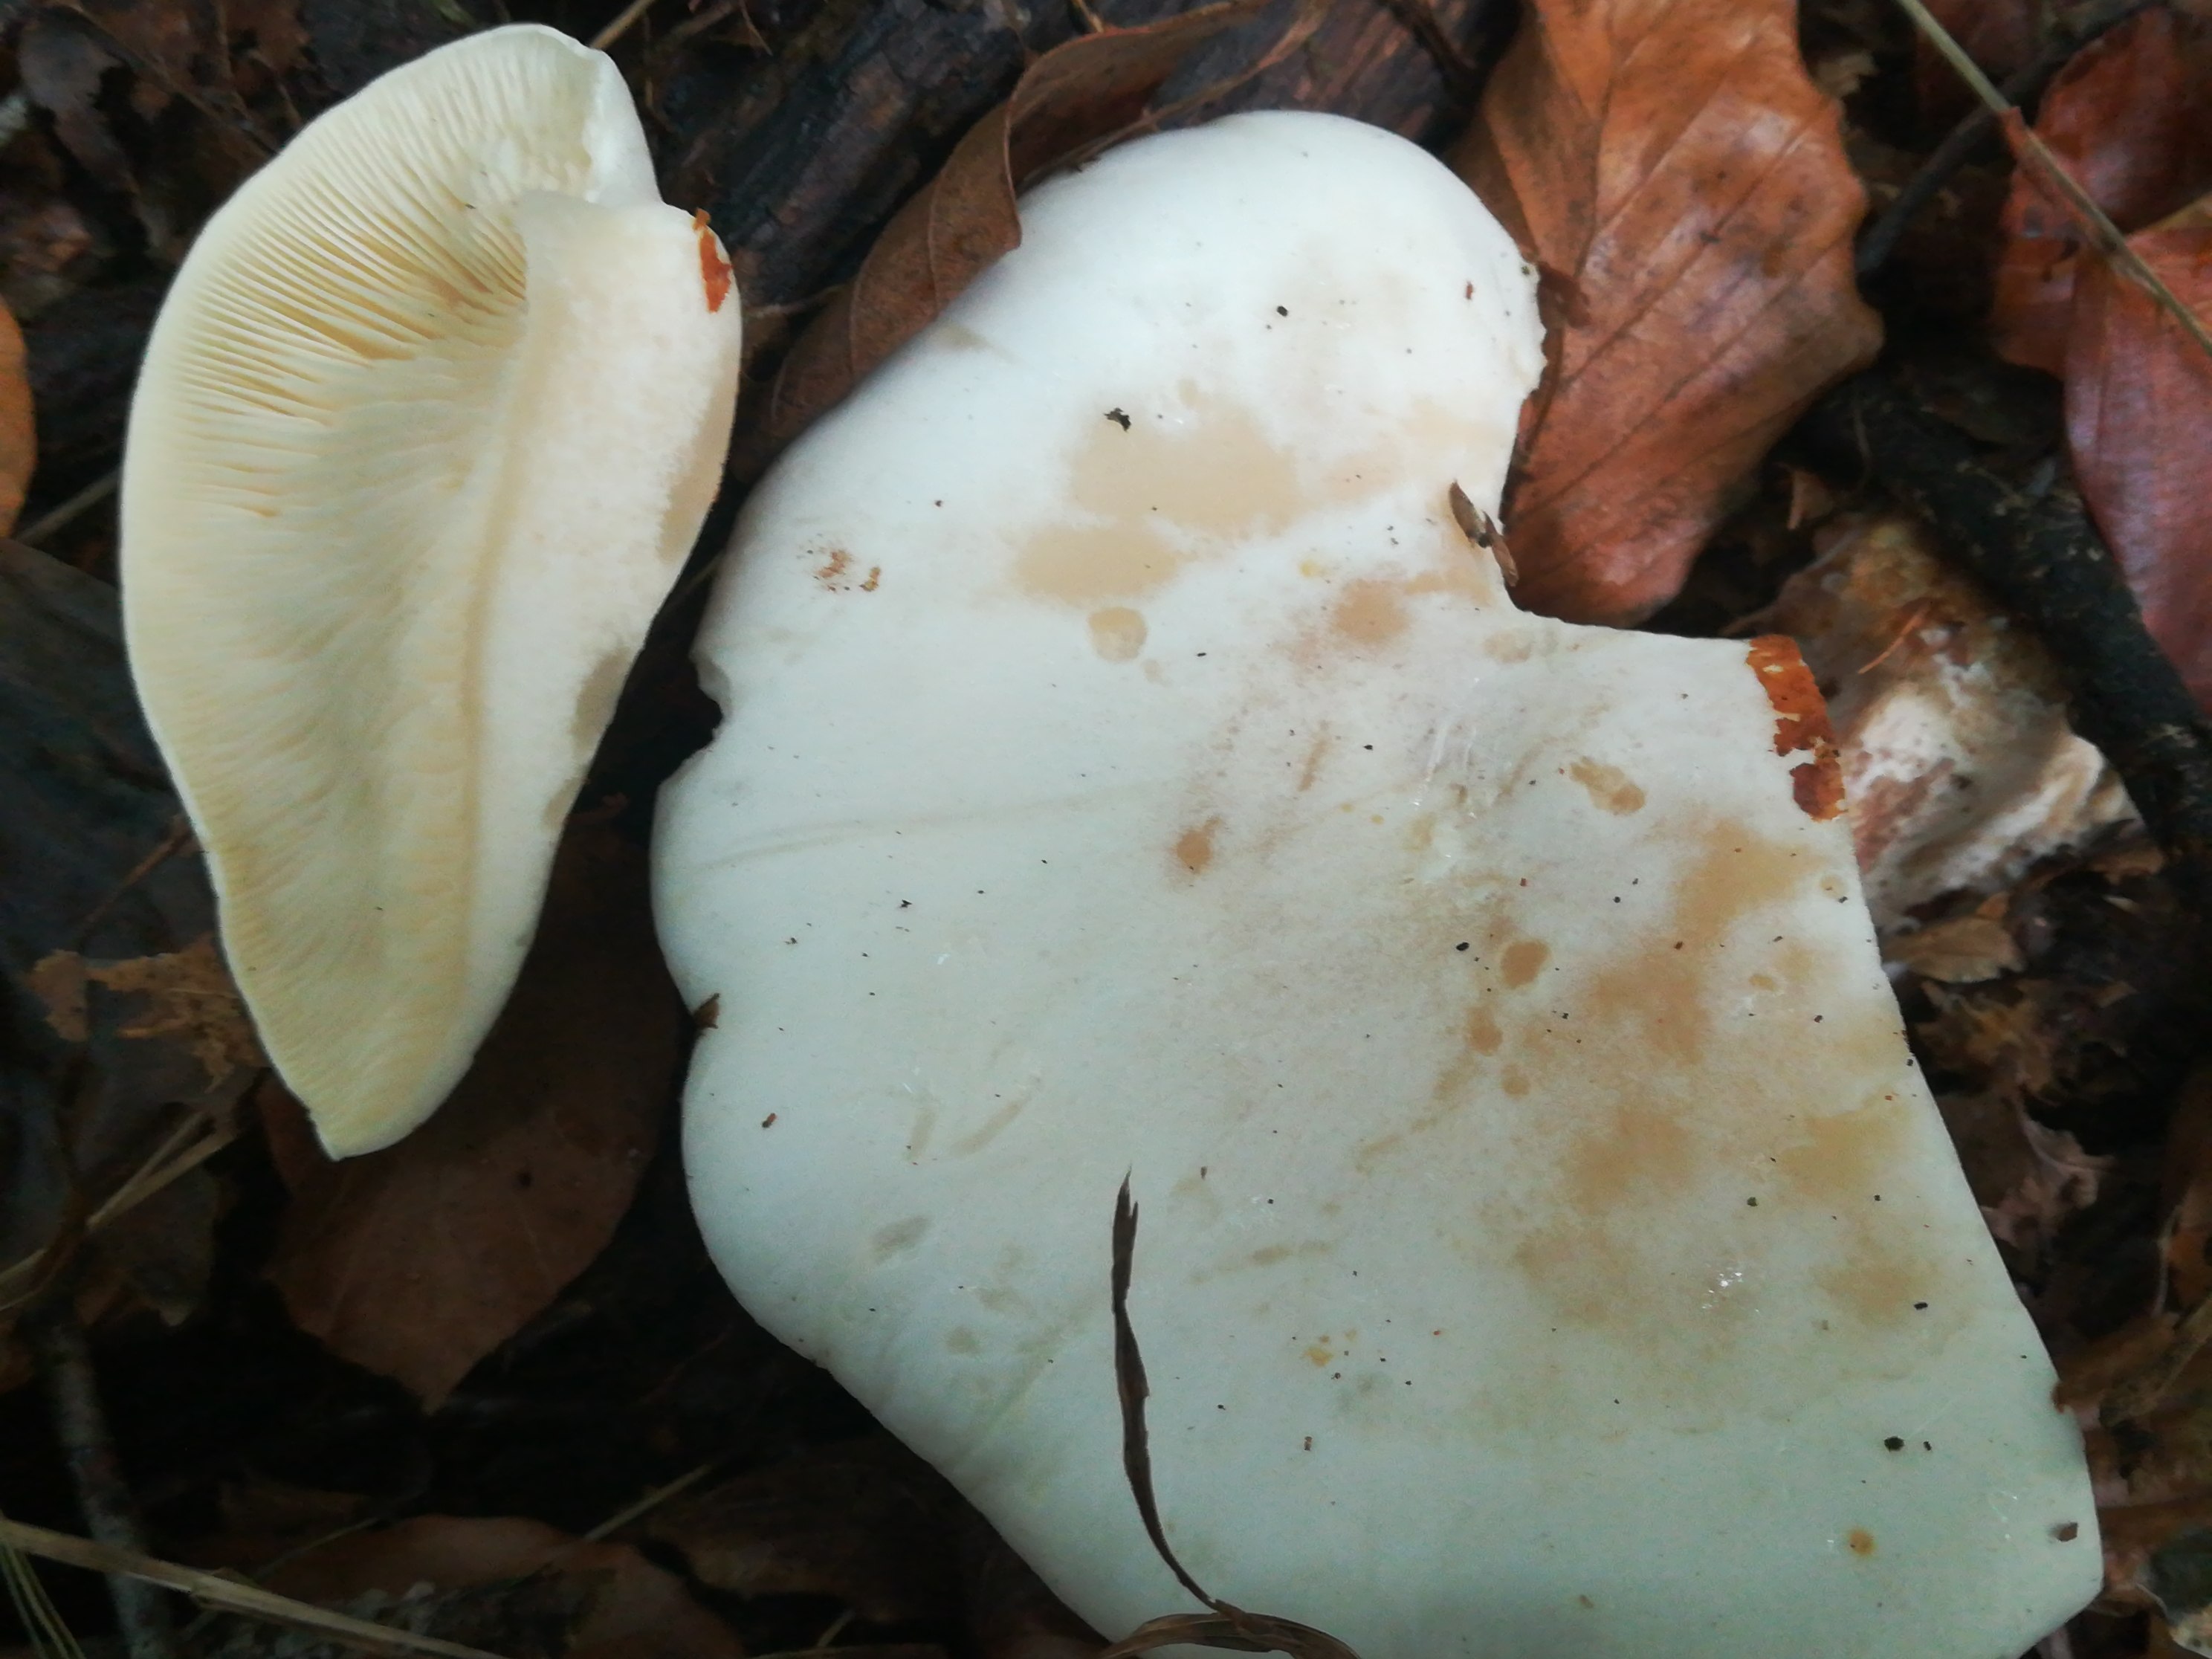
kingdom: Fungi
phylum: Basidiomycota
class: Agaricomycetes
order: Agaricales
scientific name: Agaricales
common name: champignonordenen
